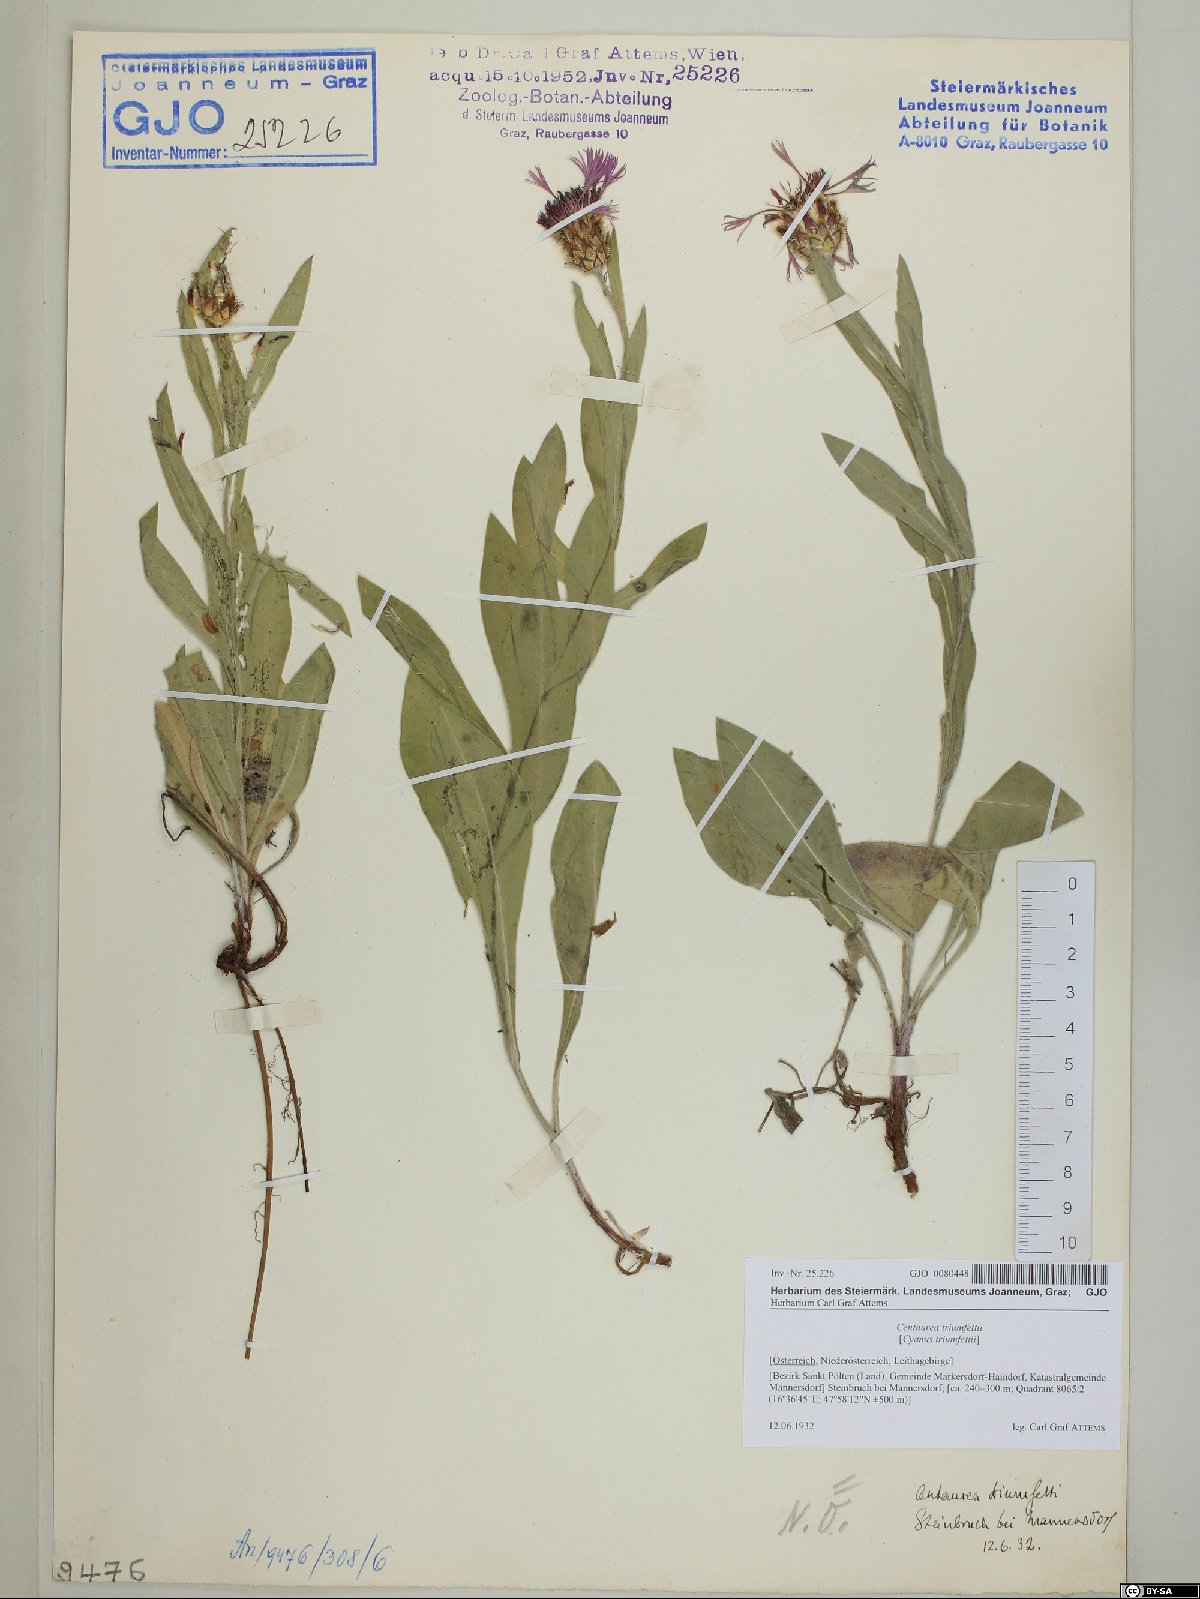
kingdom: Plantae
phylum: Tracheophyta
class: Magnoliopsida
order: Asterales
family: Asteraceae
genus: Centaurea
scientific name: Centaurea triumfettii
